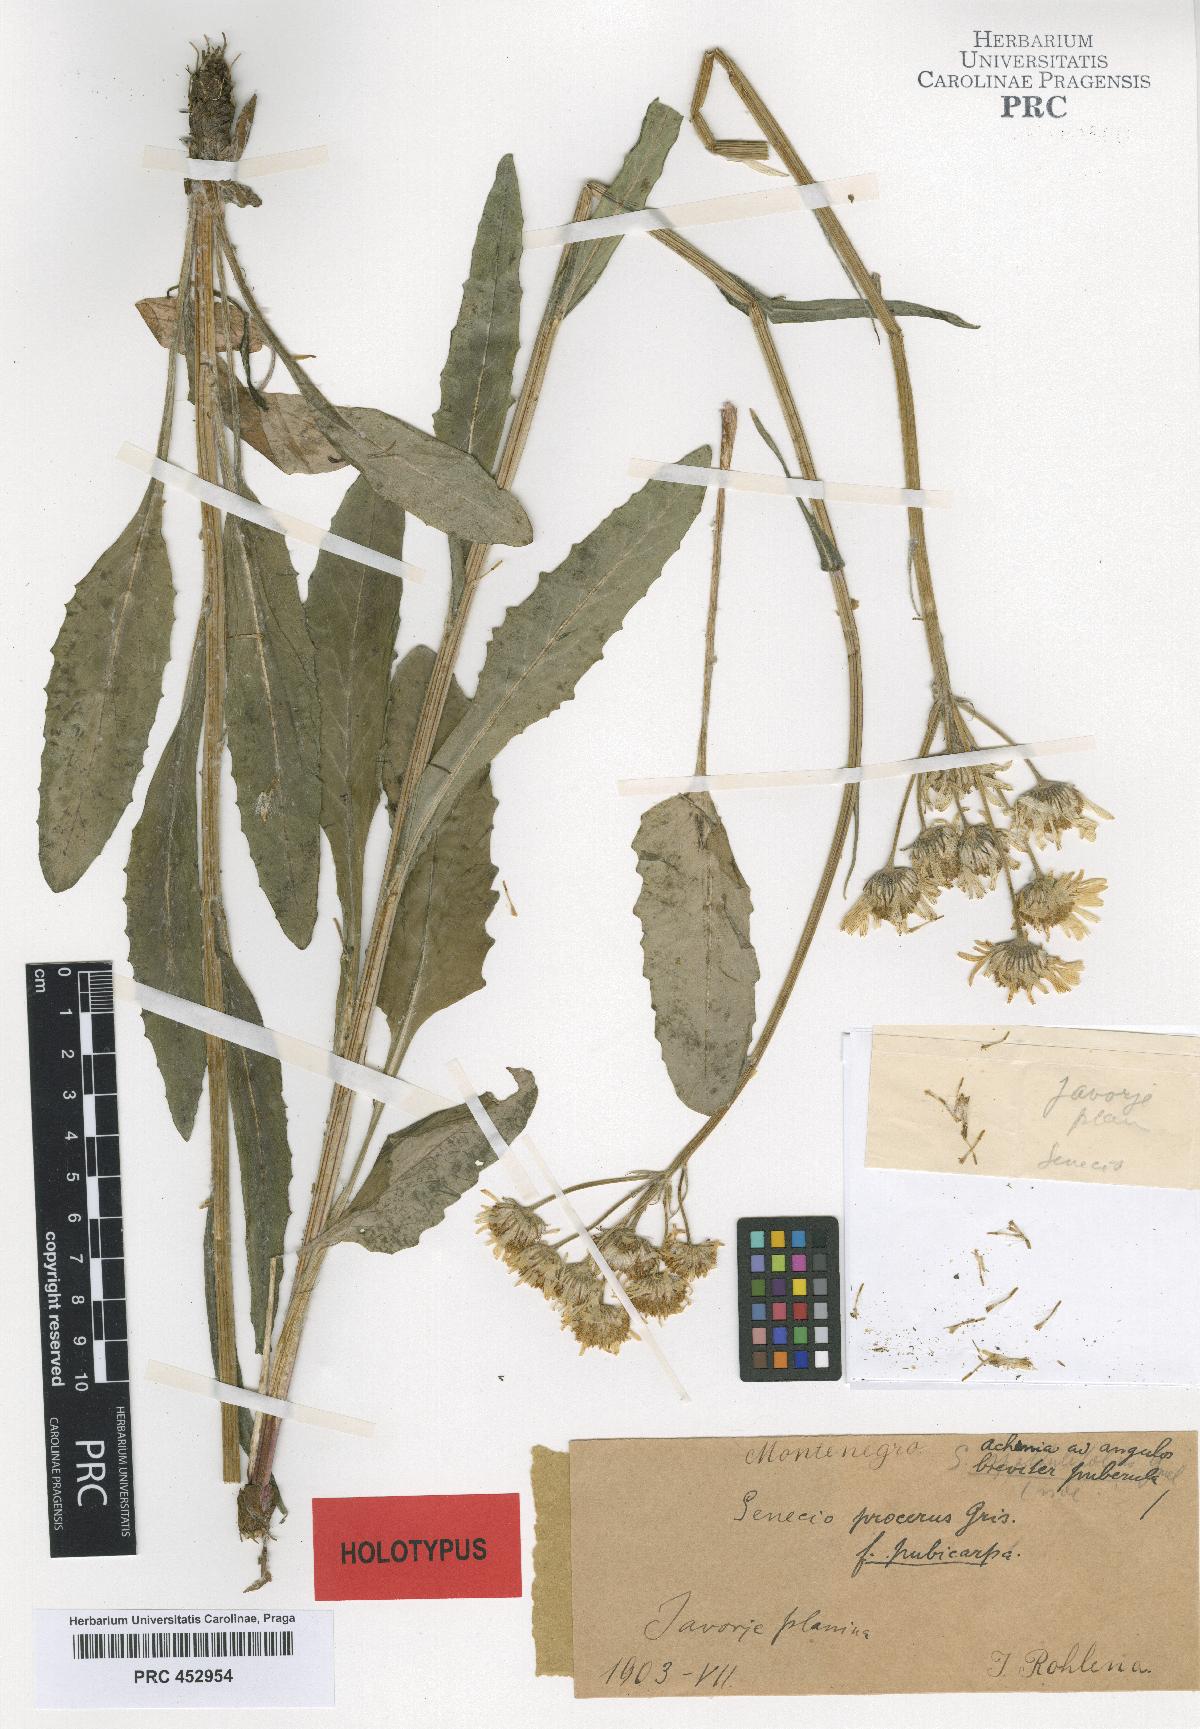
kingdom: Plantae
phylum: Tracheophyta
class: Magnoliopsida
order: Asterales
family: Asteraceae
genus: Senecio
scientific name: Senecio procerus
